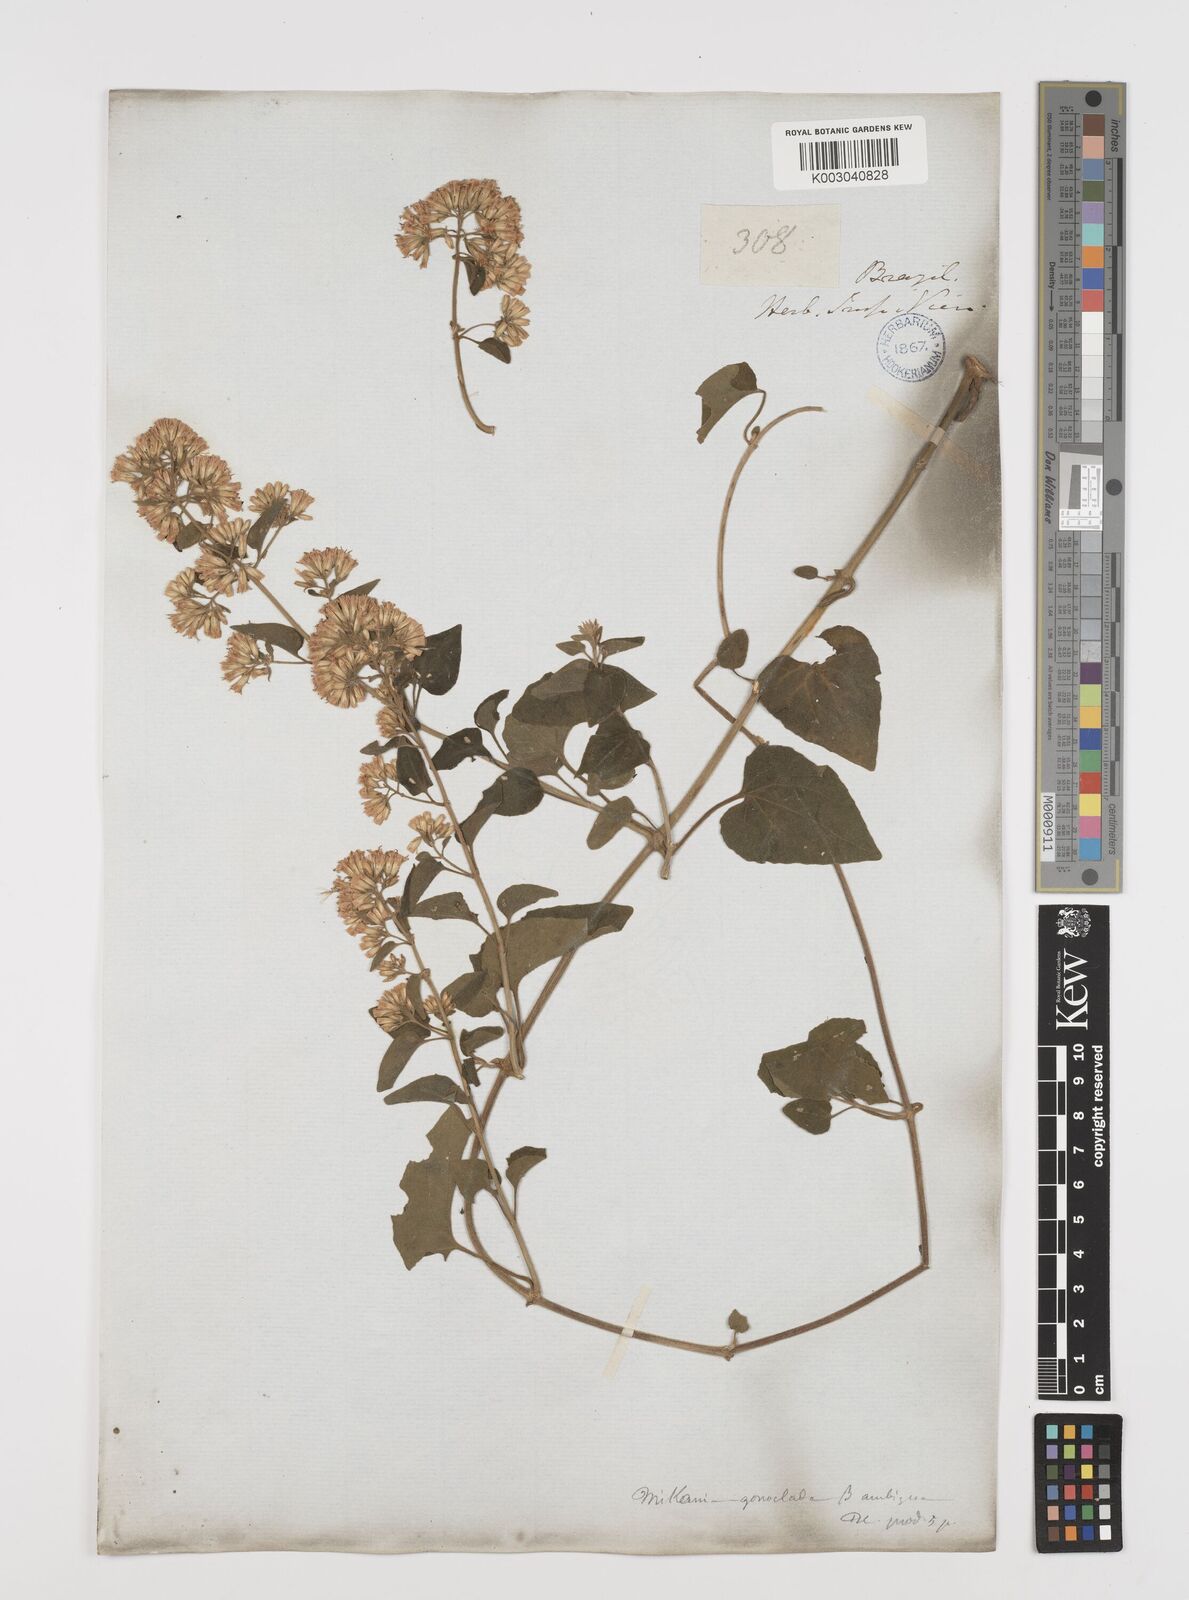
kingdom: Plantae
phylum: Tracheophyta
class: Magnoliopsida
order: Asterales
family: Asteraceae
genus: Mikania
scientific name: Mikania cordifolia
